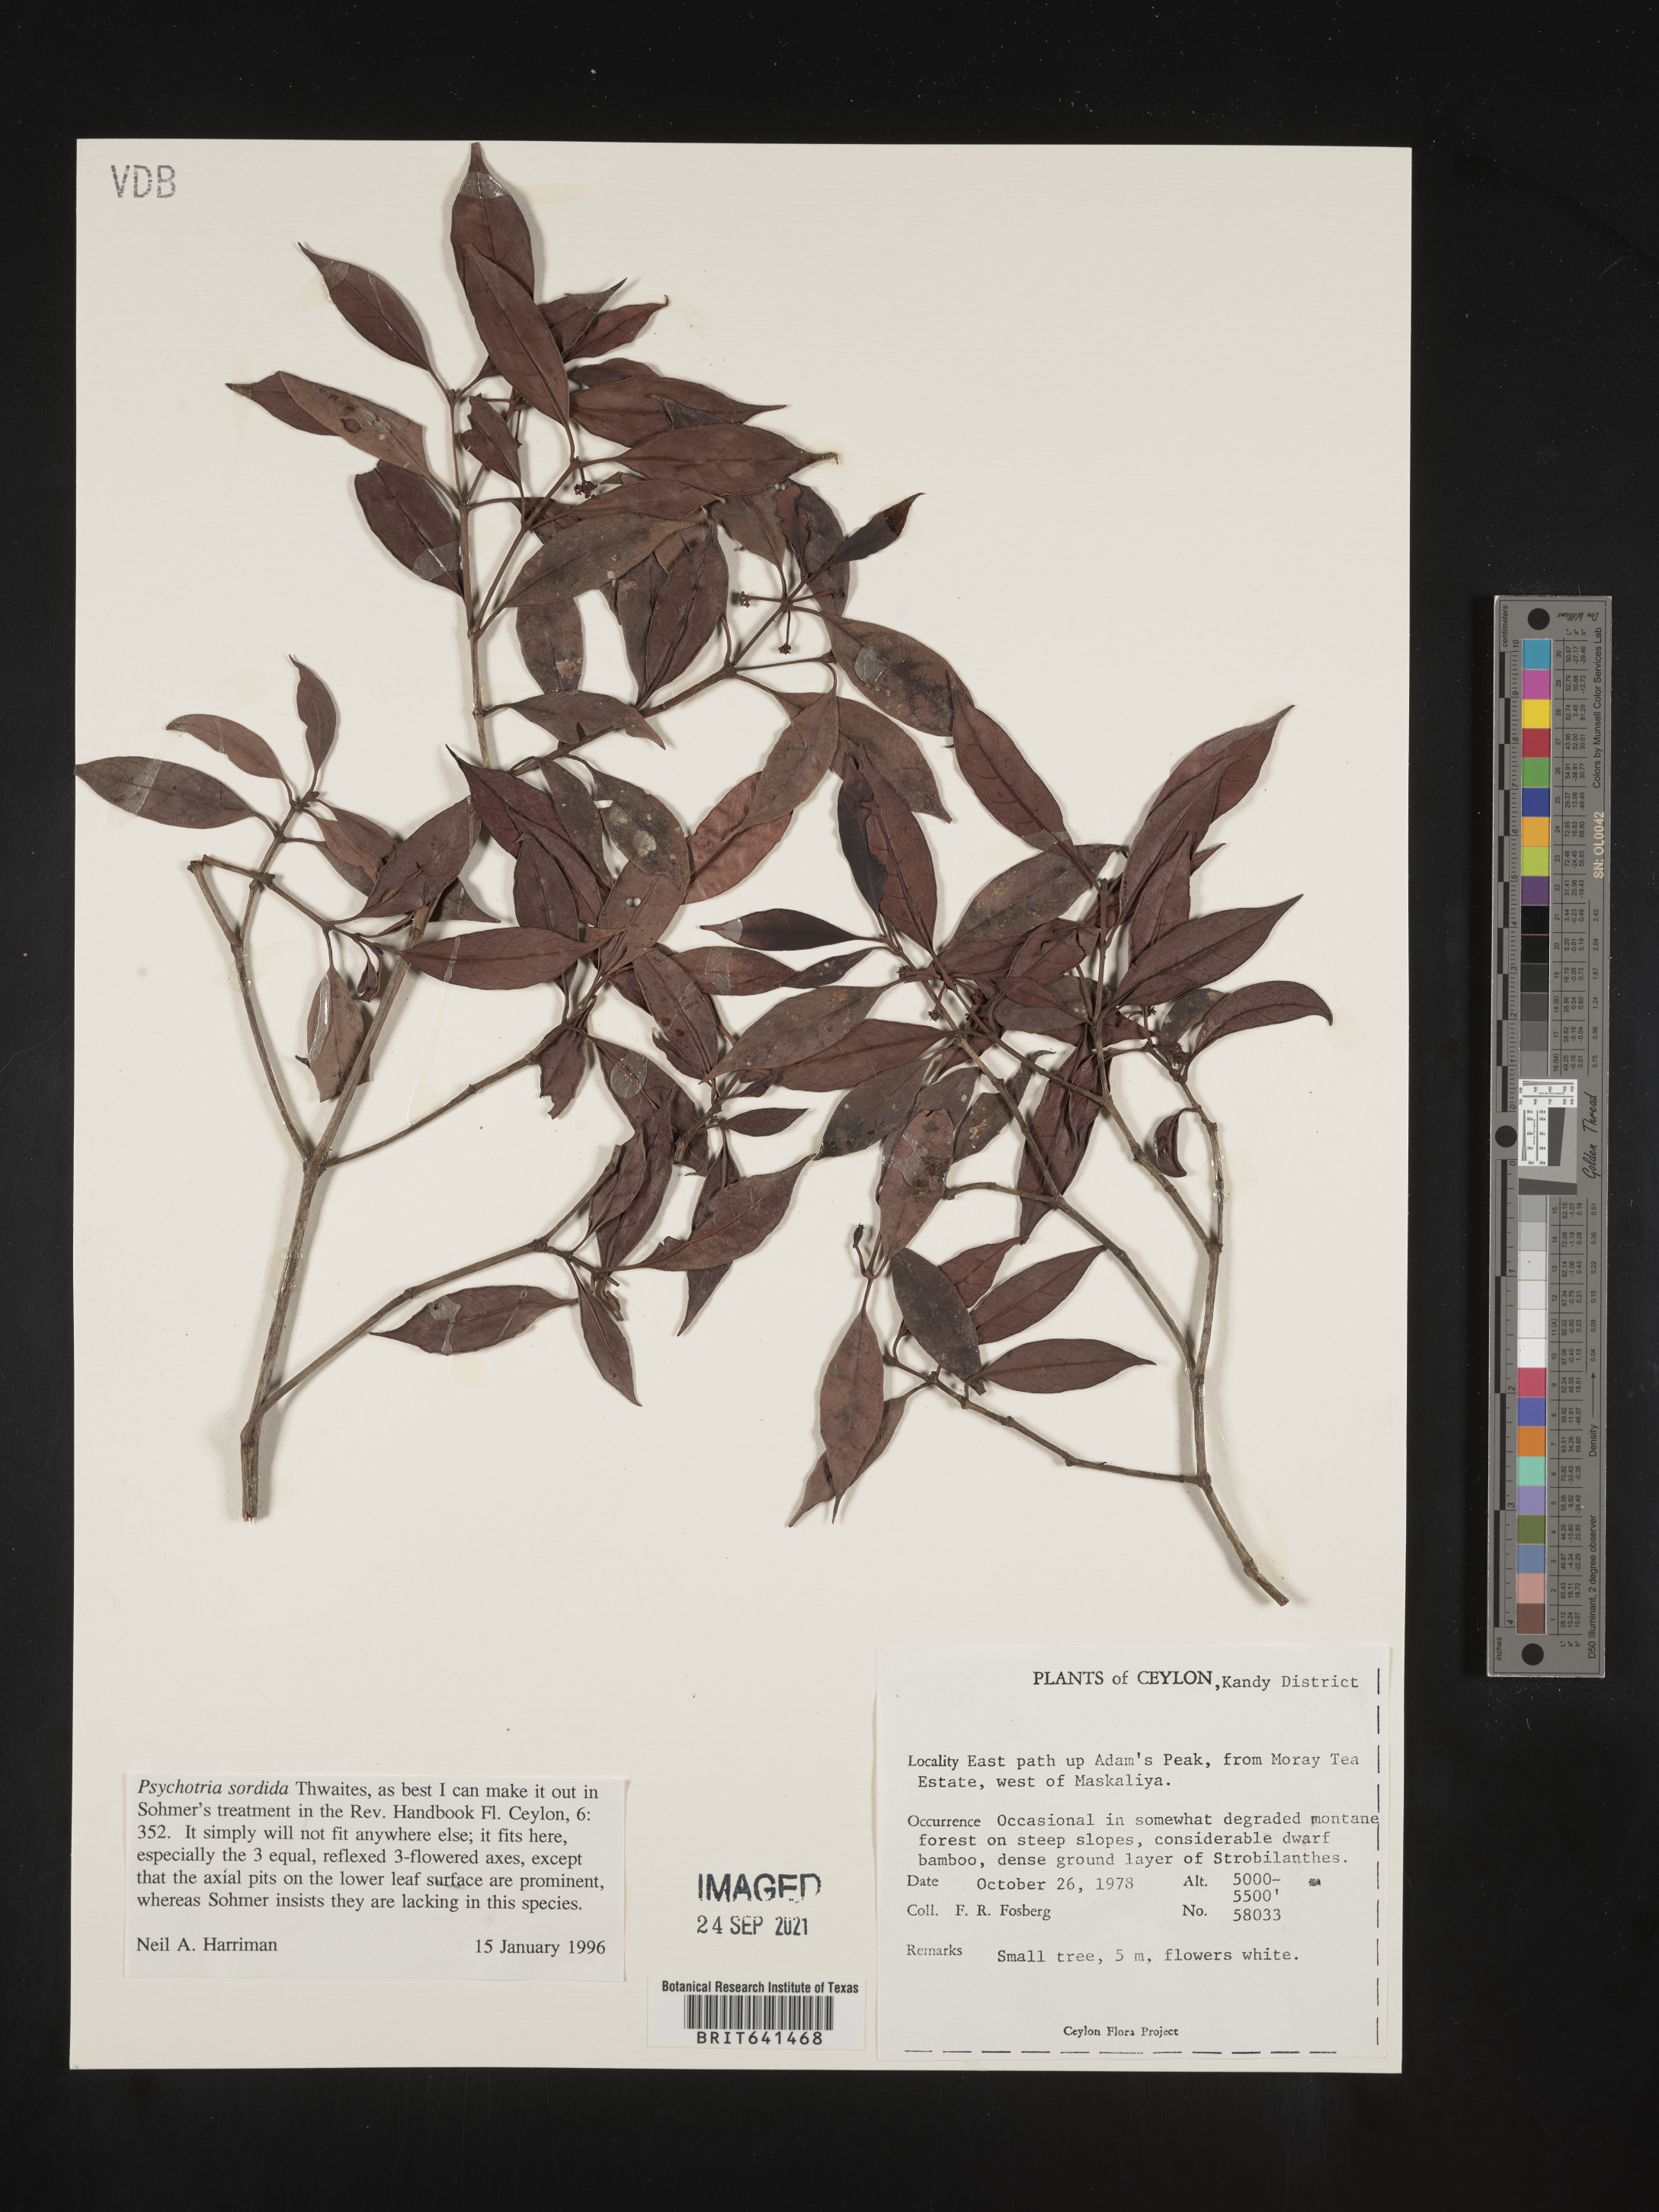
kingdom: Plantae
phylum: Tracheophyta
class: Magnoliopsida
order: Gentianales
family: Rubiaceae
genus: Psychotria
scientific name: Psychotria
